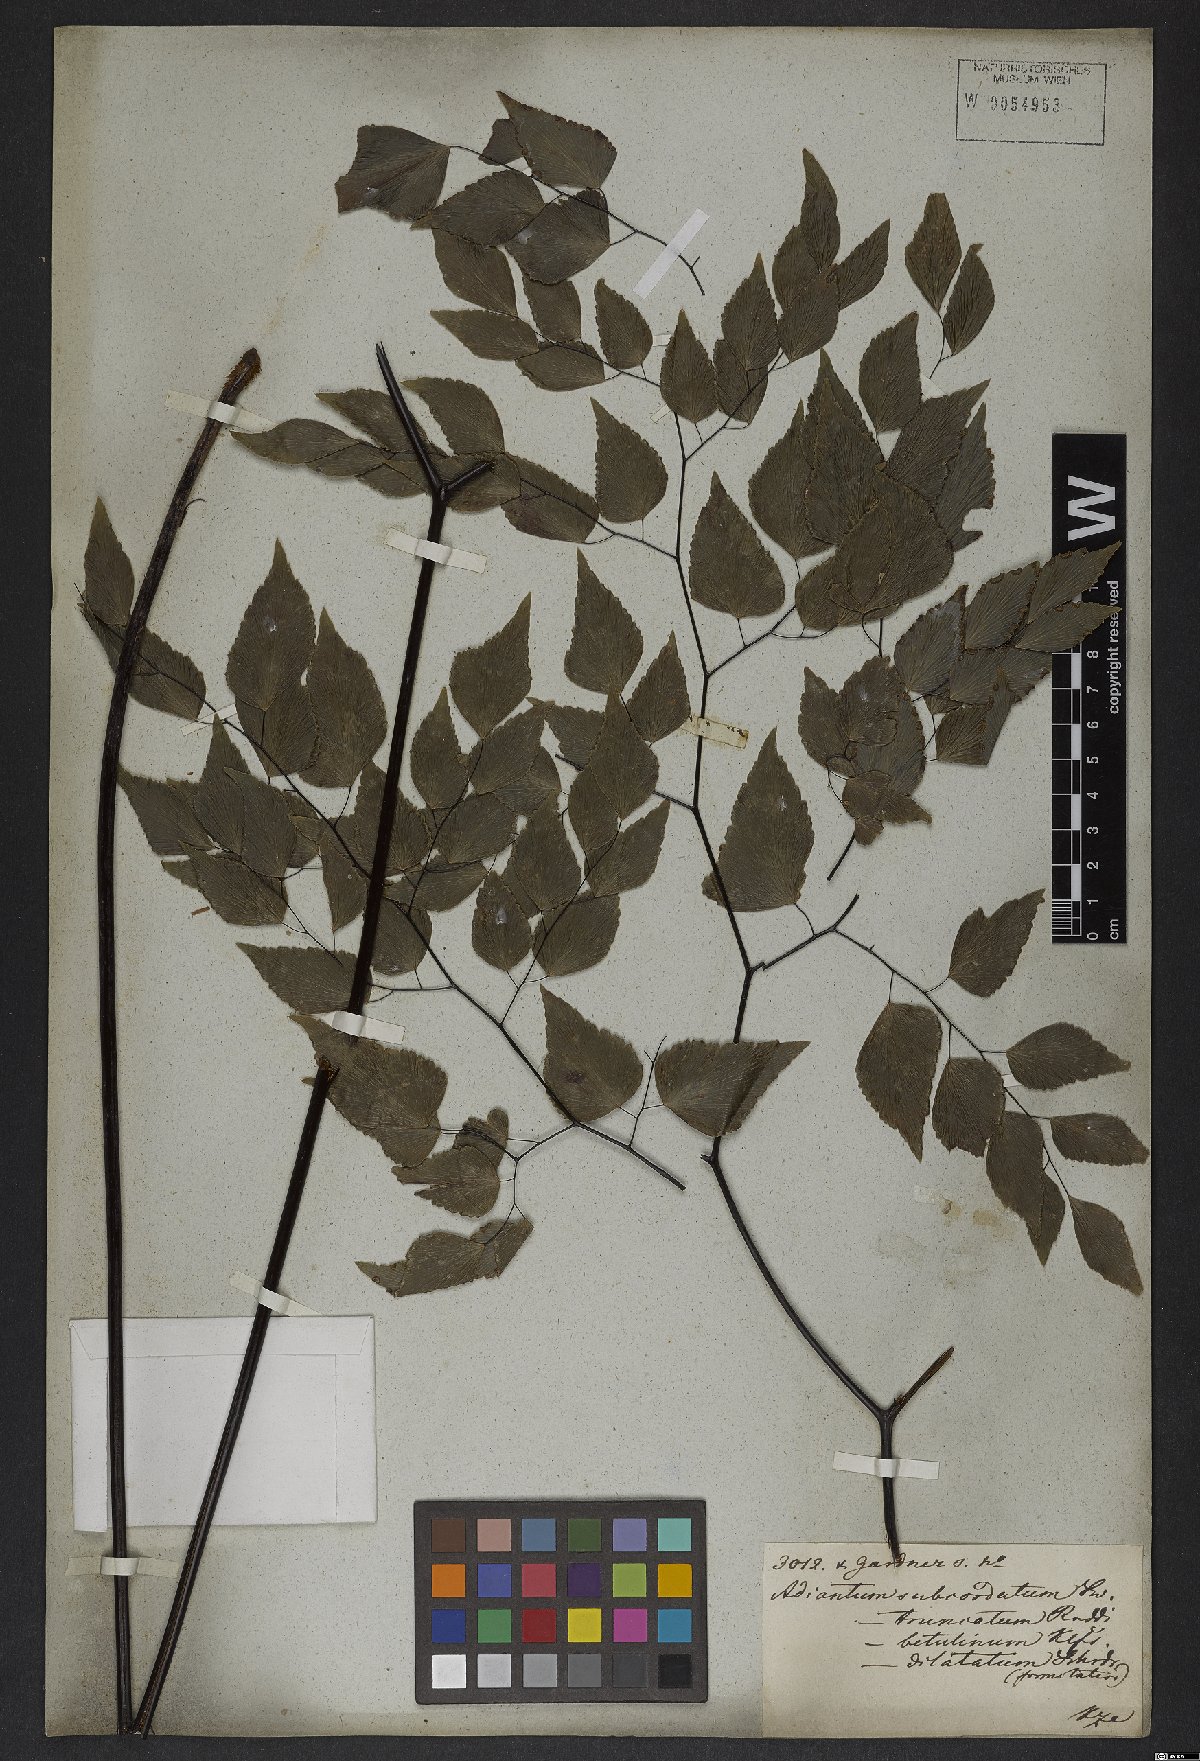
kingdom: Plantae
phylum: Tracheophyta
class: Polypodiopsida
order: Polypodiales
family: Pteridaceae
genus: Adiantum
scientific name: Adiantum subcordatum
